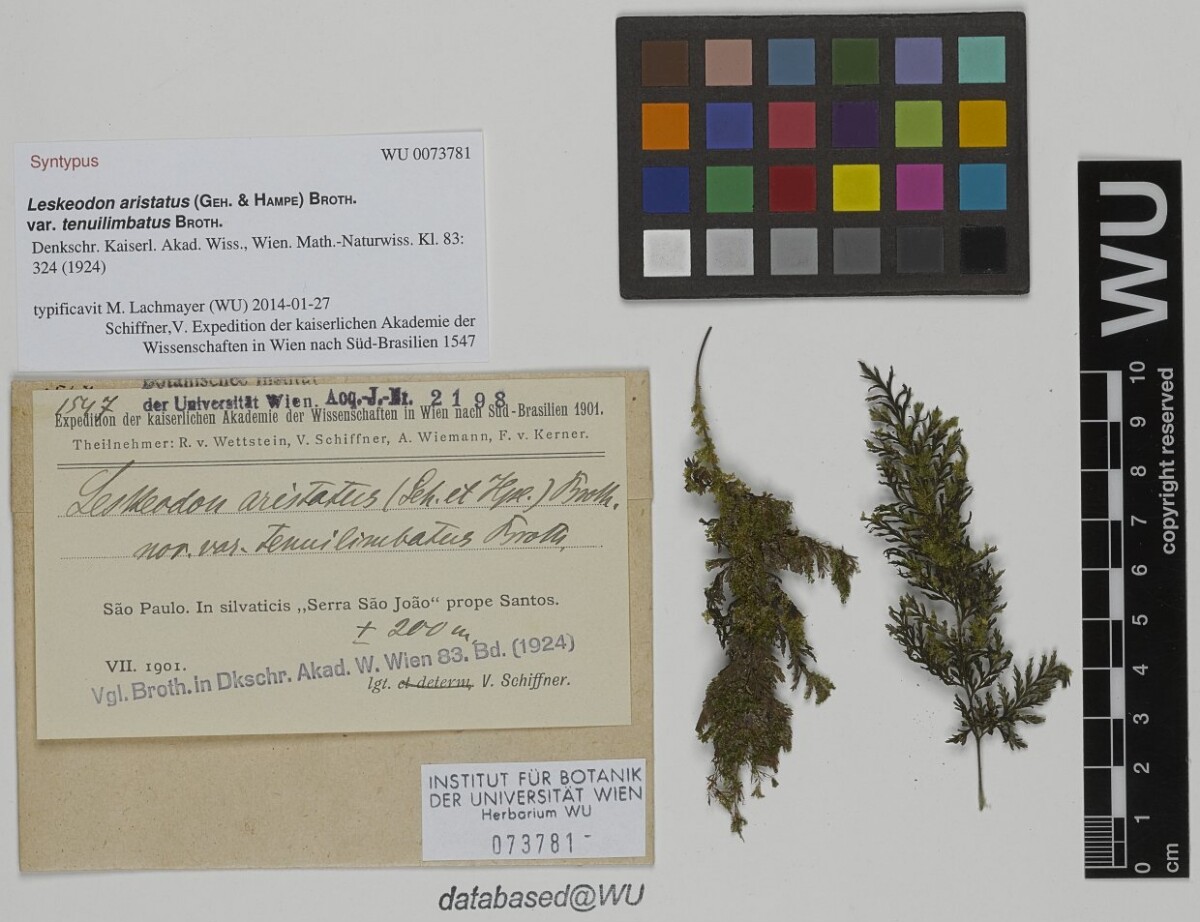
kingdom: Plantae
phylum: Bryophyta
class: Bryopsida
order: Hookeriales
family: Daltoniaceae
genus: Leskeodon
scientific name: Leskeodon aristatus
